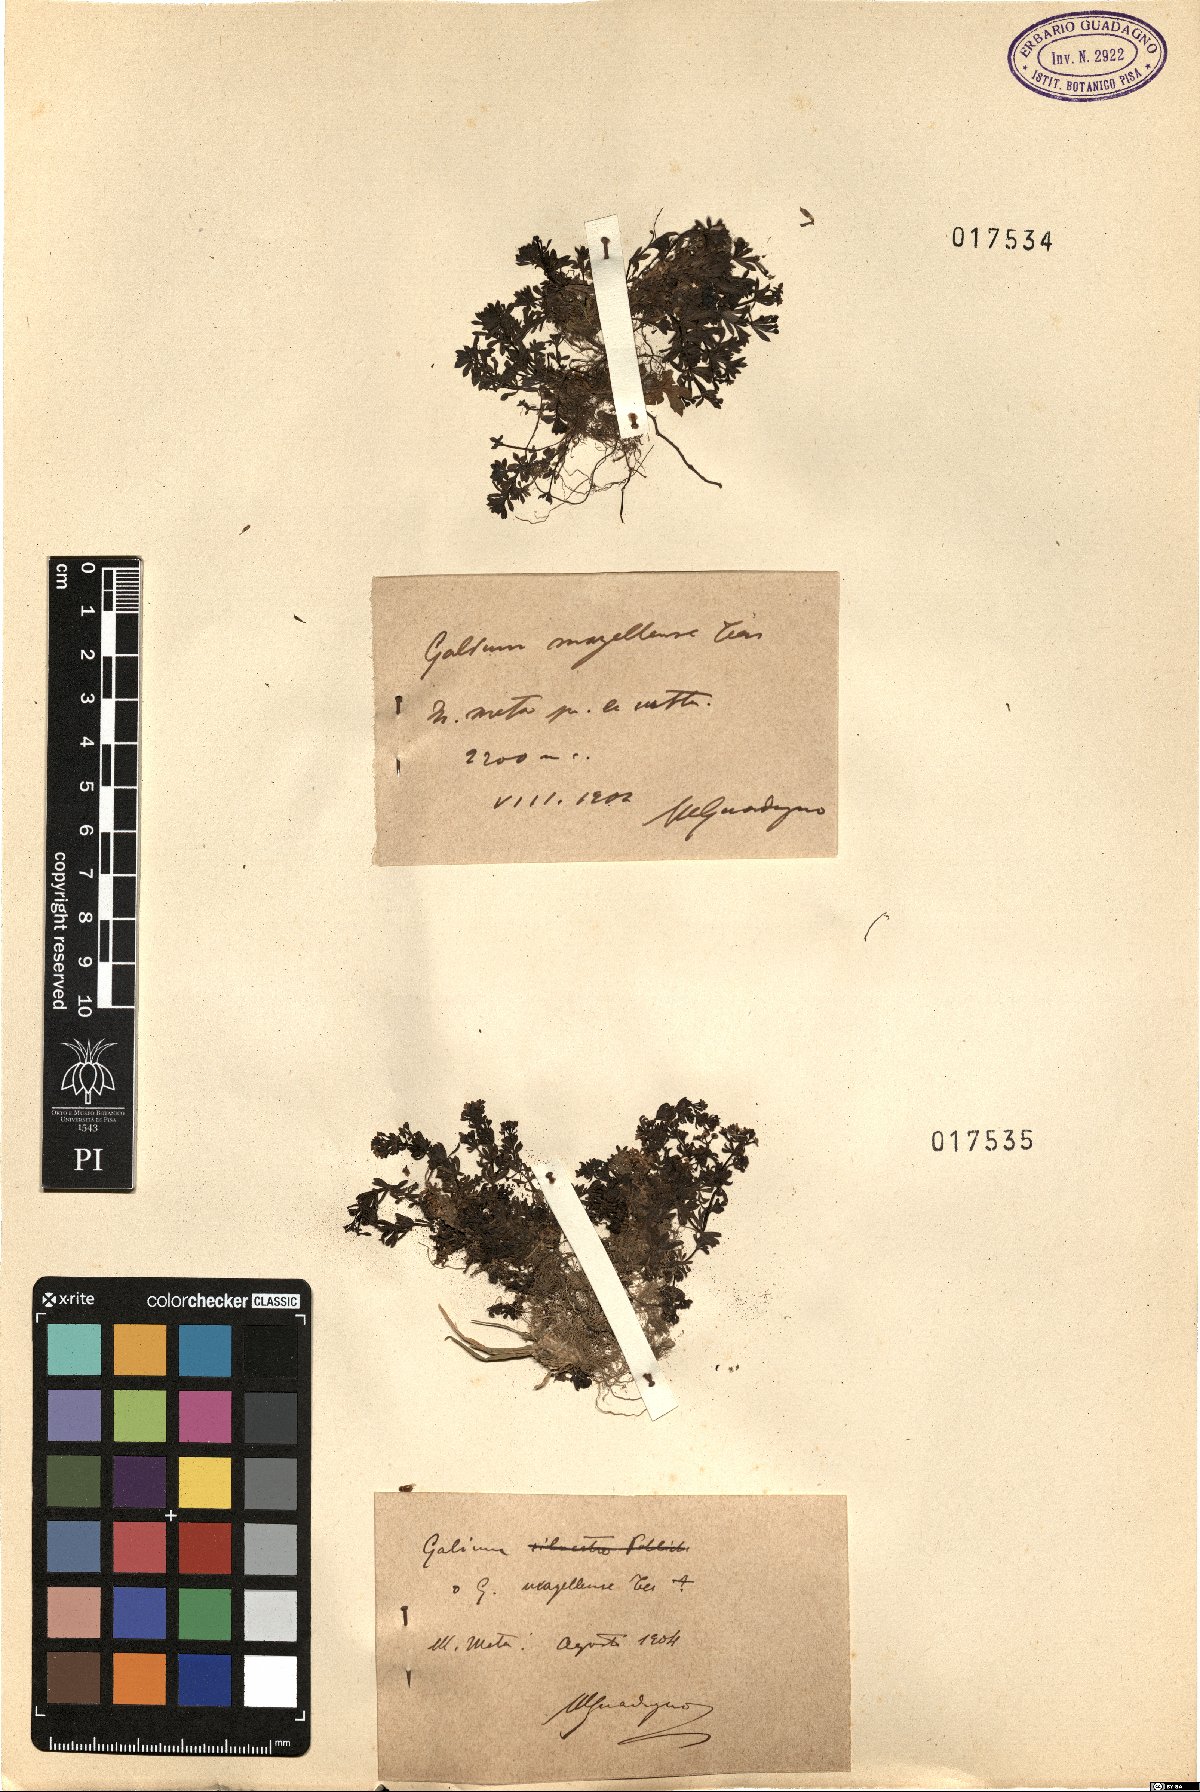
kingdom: Plantae
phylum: Tracheophyta
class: Magnoliopsida
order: Gentianales
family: Rubiaceae
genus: Galium
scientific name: Galium magellense
